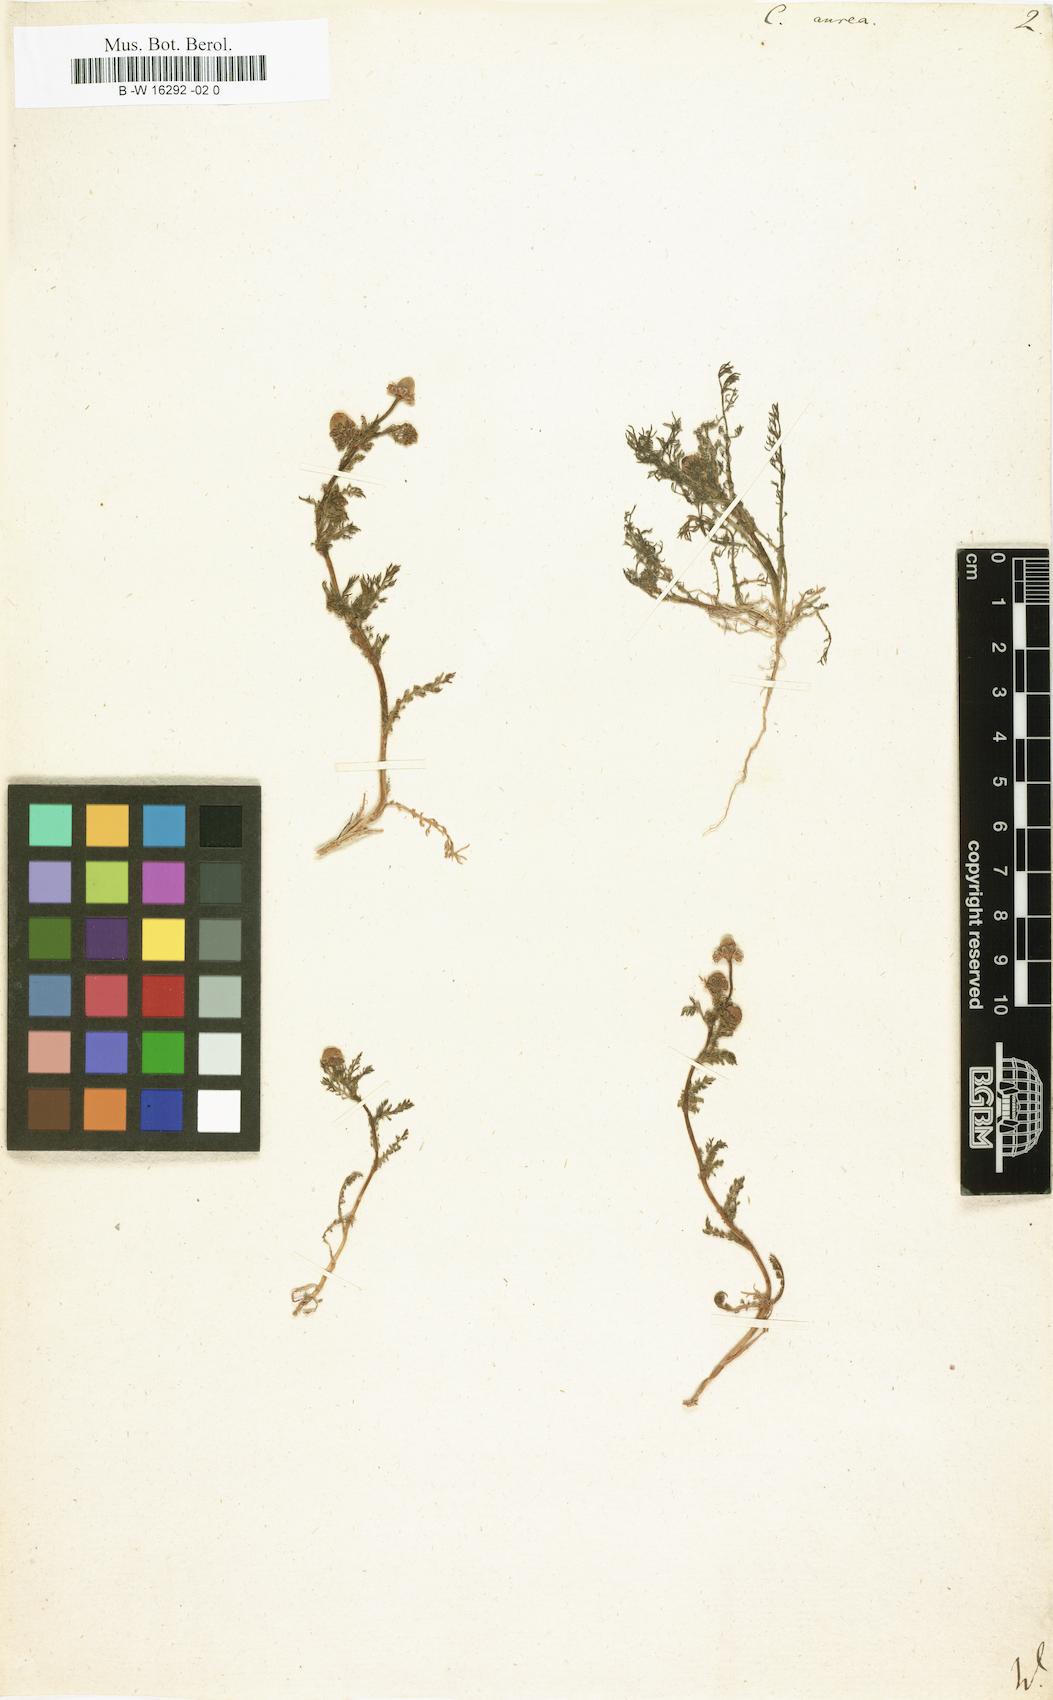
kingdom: Plantae
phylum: Tracheophyta
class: Magnoliopsida
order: Asterales
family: Asteraceae
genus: Cotula
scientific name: Cotula aurea
